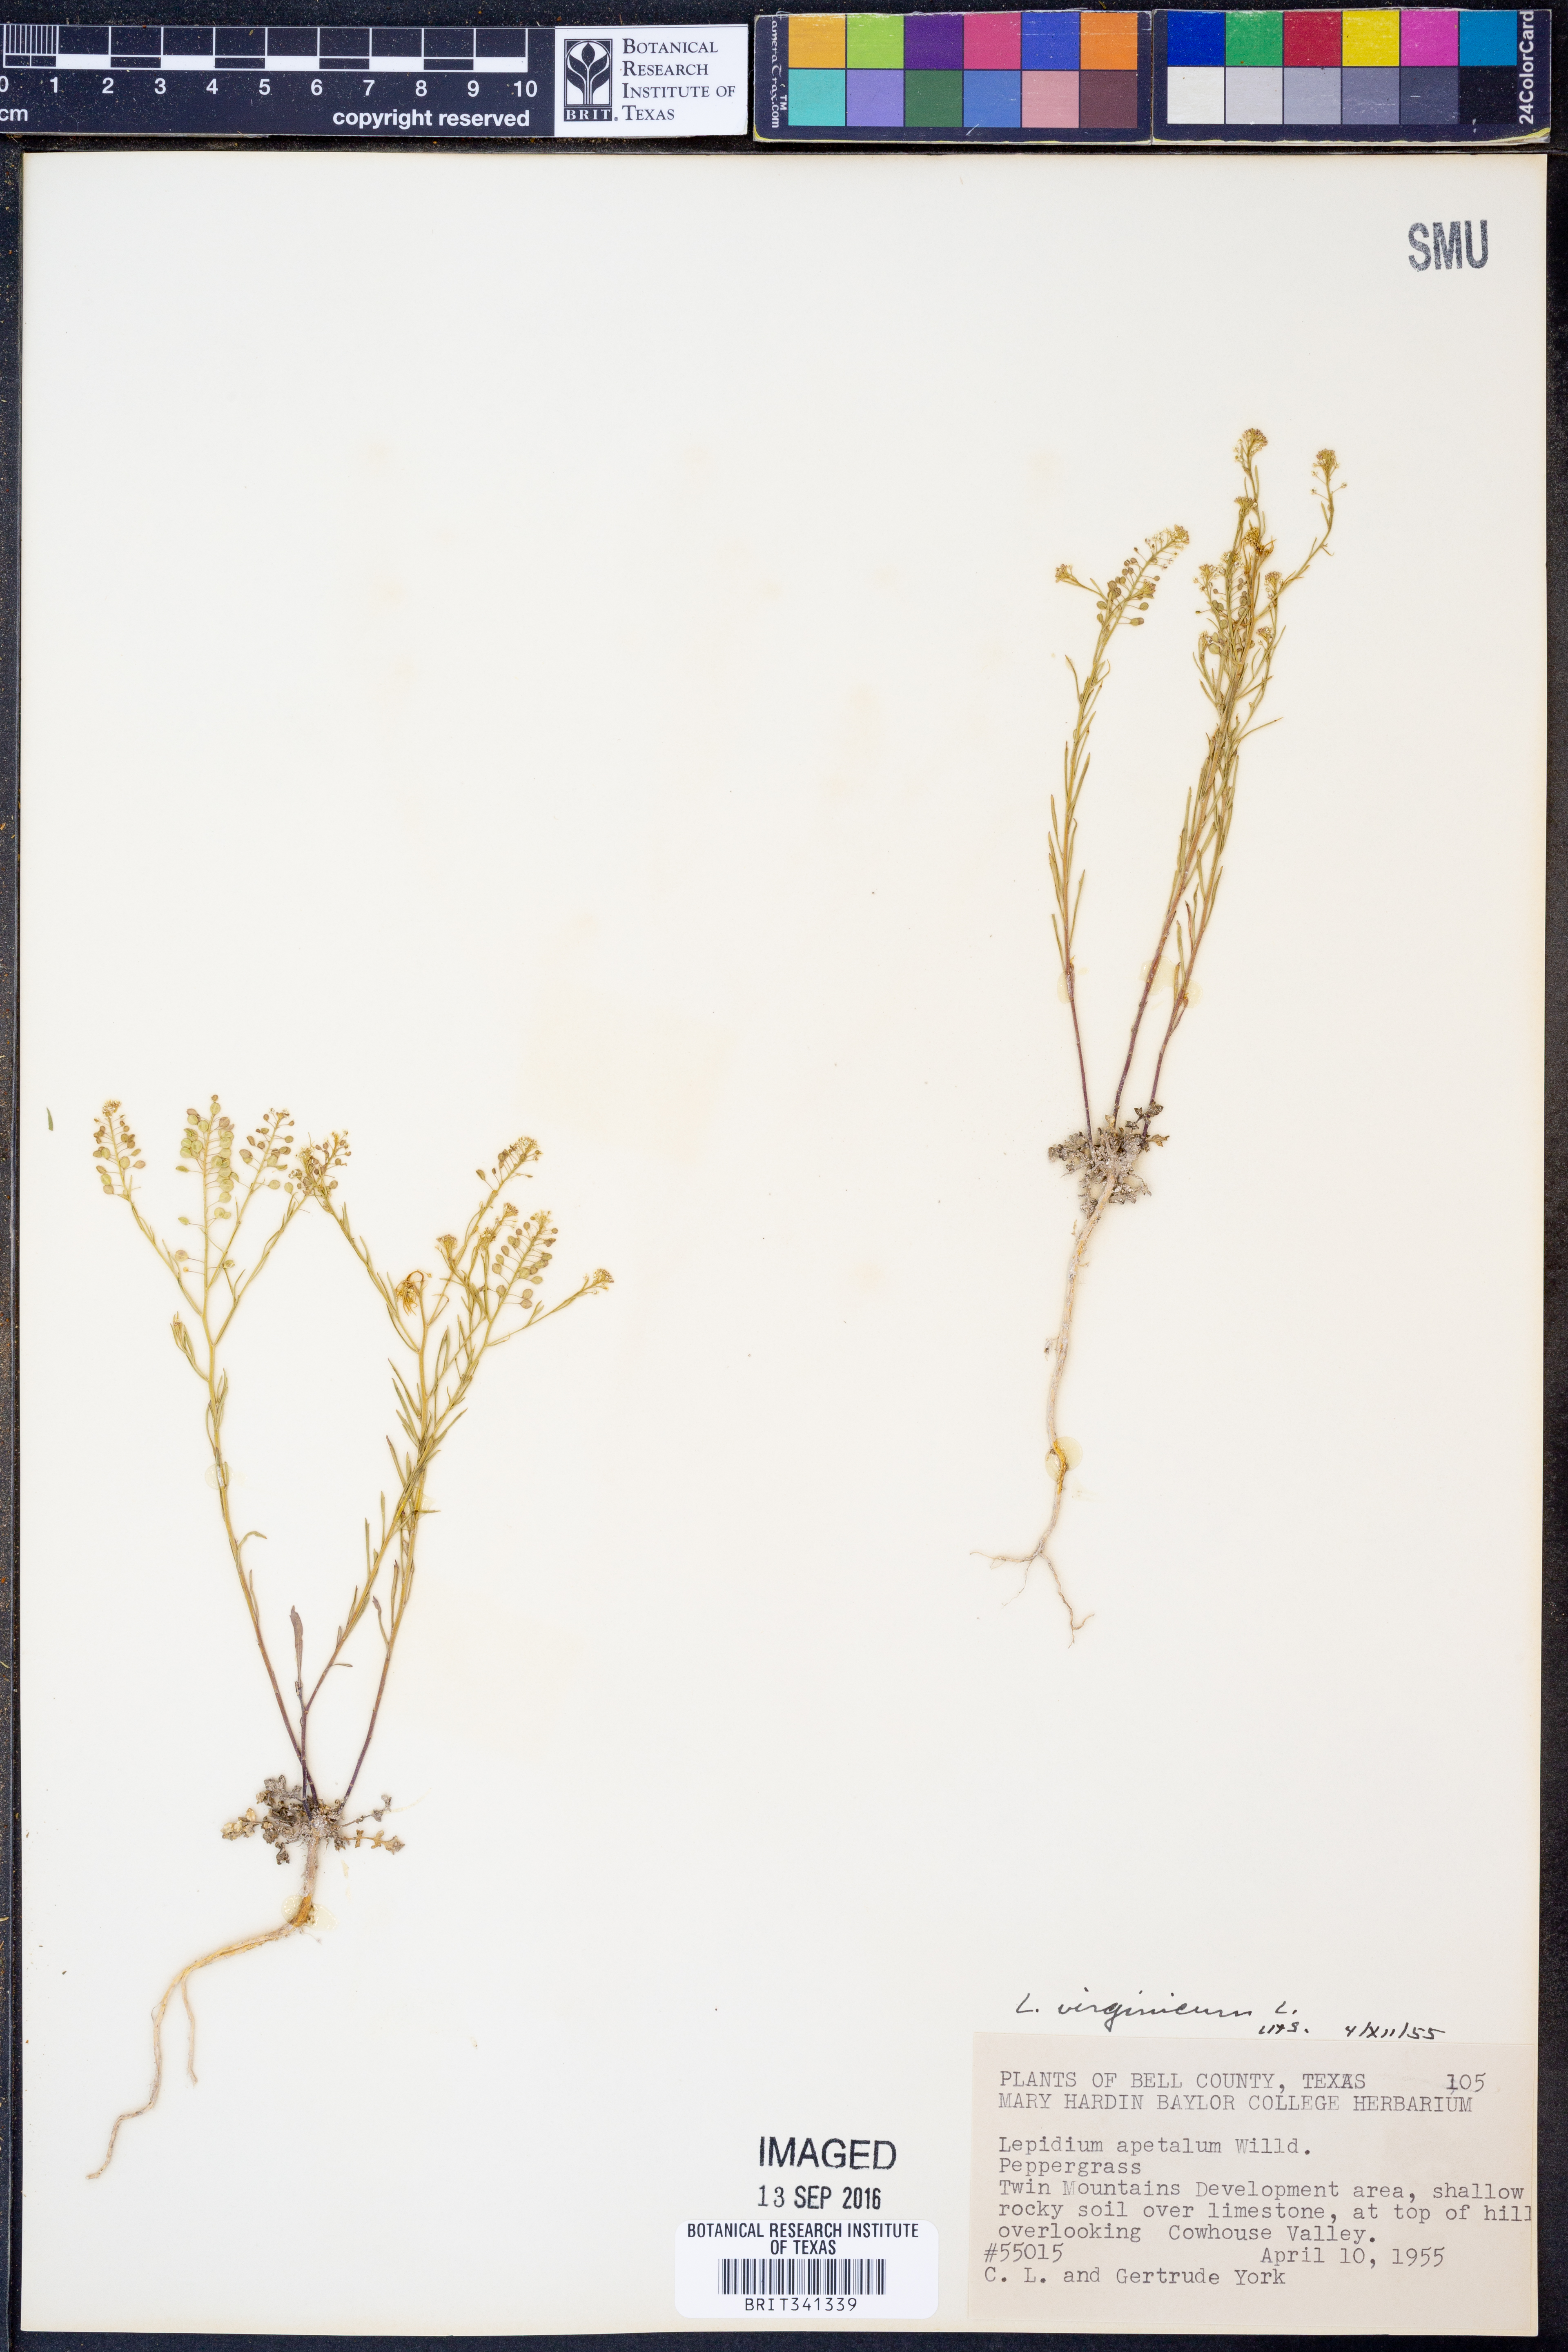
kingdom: Plantae
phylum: Tracheophyta
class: Magnoliopsida
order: Brassicales
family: Brassicaceae
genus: Lepidium
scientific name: Lepidium virginicum
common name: Least pepperwort
